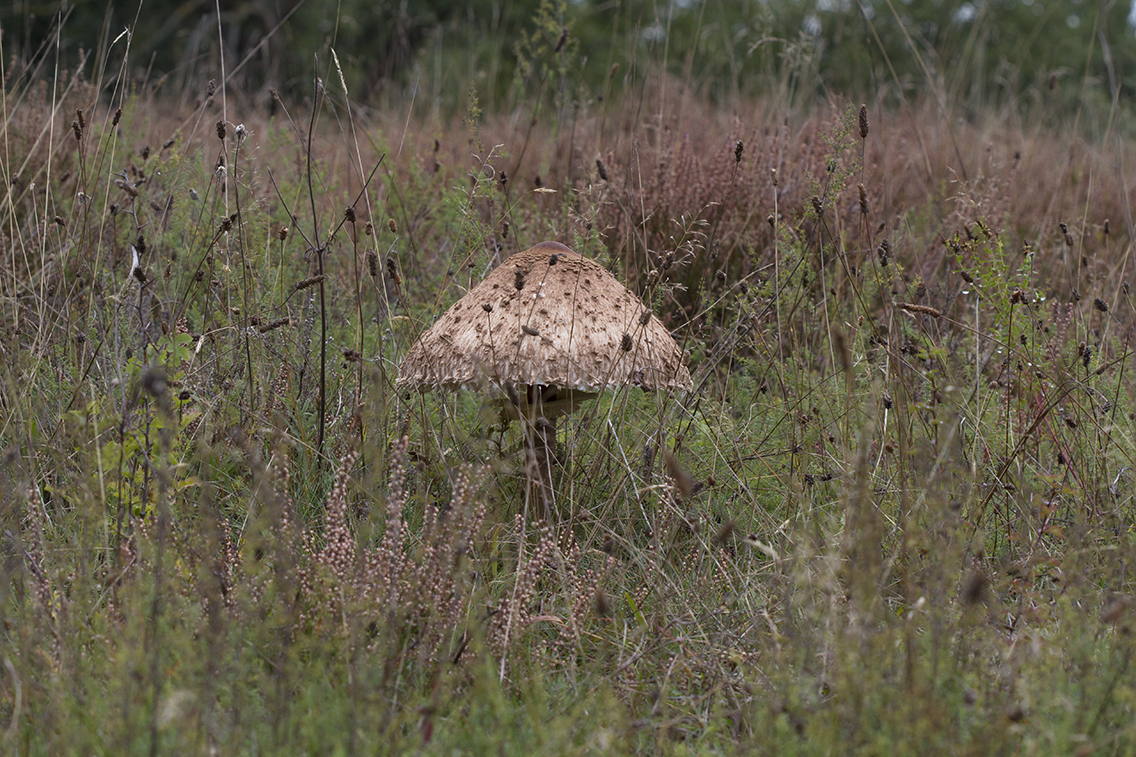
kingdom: Fungi
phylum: Basidiomycota
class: Agaricomycetes
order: Agaricales
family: Agaricaceae
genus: Macrolepiota
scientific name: Macrolepiota procera
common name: stor kæmpeparasolhat
